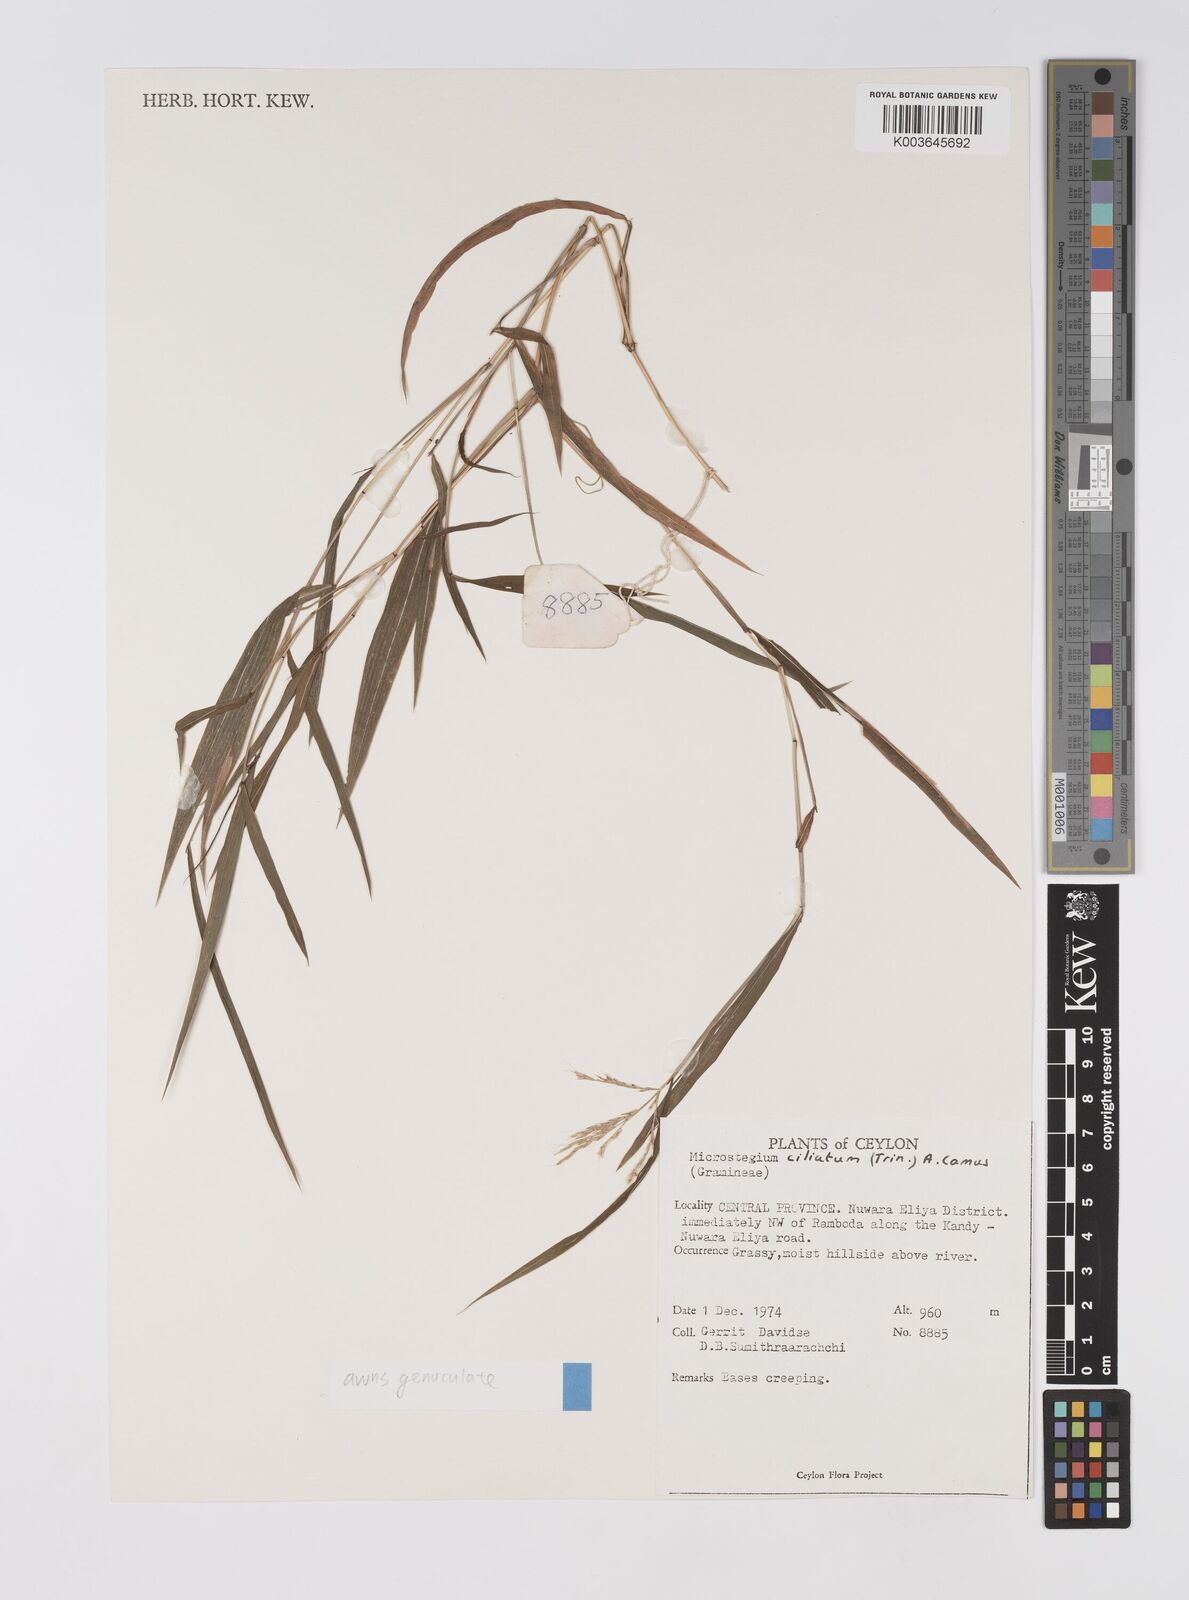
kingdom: Plantae
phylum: Tracheophyta
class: Liliopsida
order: Poales
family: Poaceae
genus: Microstegium
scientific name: Microstegium fasciculatum
